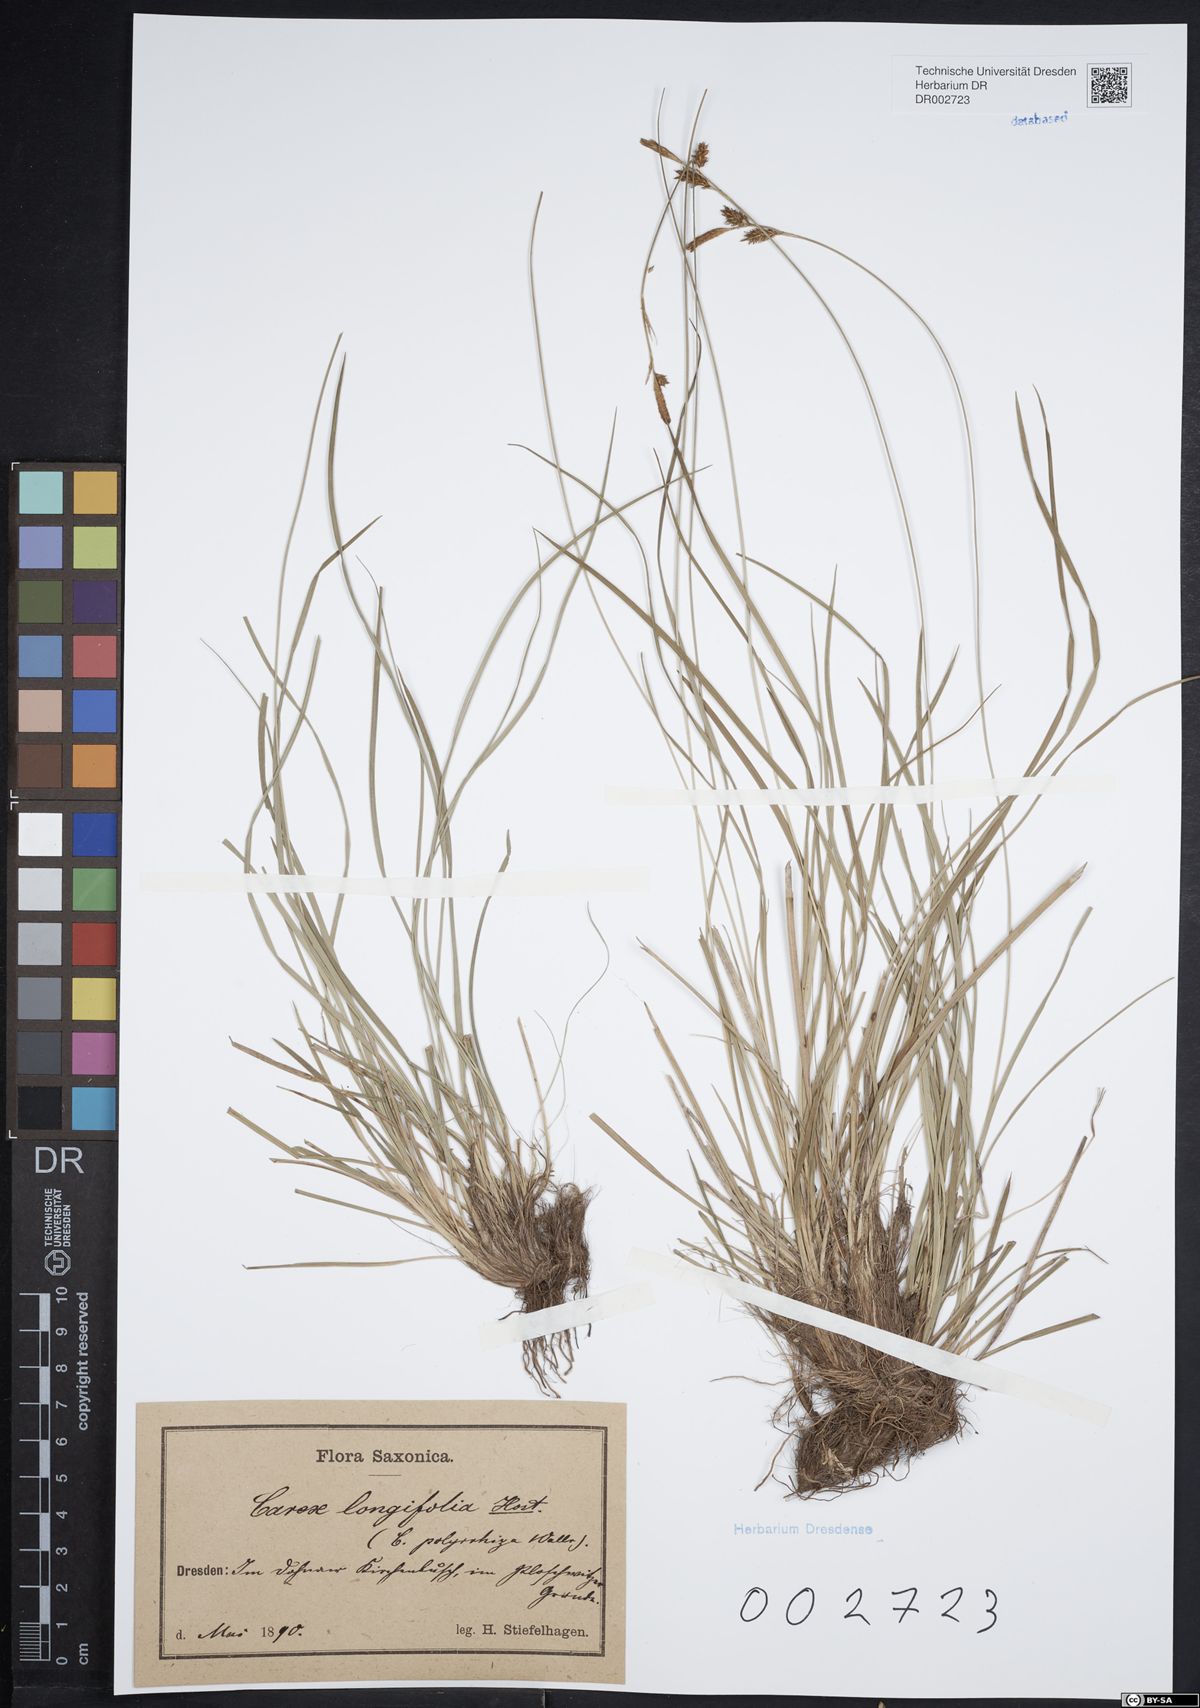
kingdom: Plantae
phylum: Tracheophyta
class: Liliopsida
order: Poales
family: Cyperaceae
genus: Carex
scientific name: Carex umbrosa
